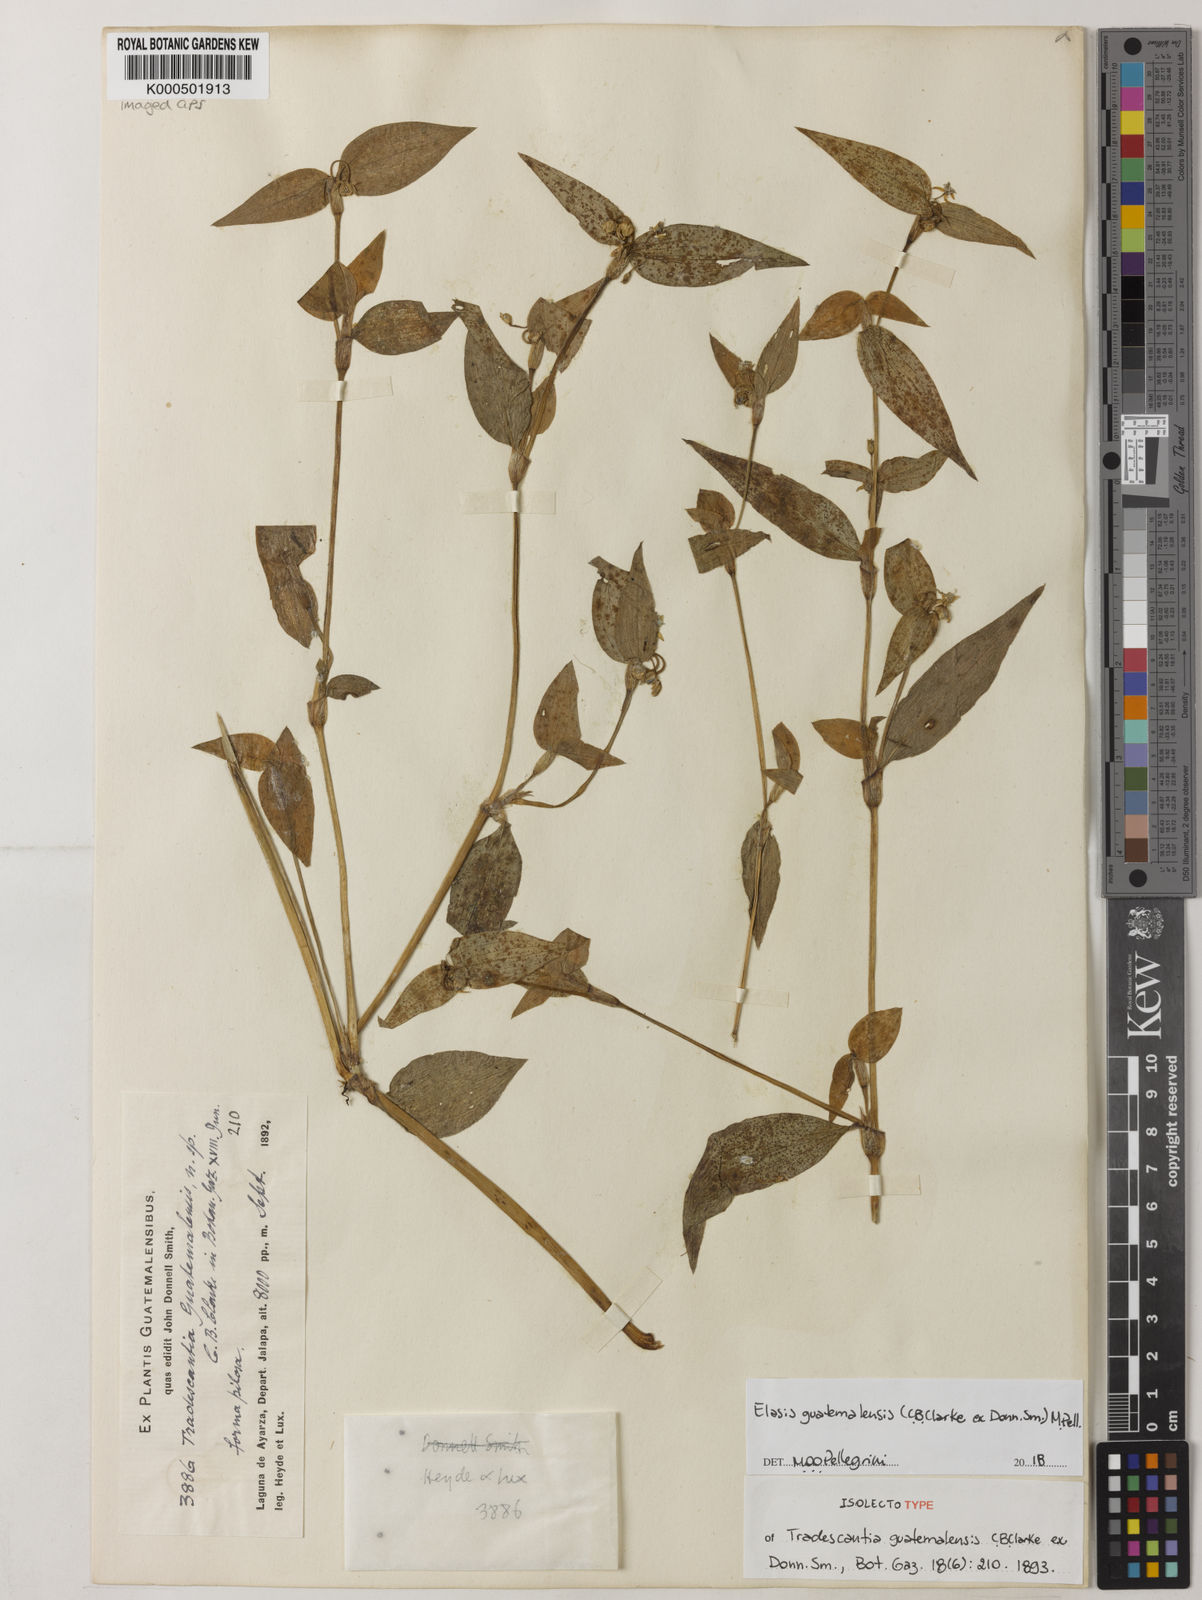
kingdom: Plantae
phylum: Tracheophyta
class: Liliopsida
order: Commelinales
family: Commelinaceae
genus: Elasis
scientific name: Elasis guatemalensis
